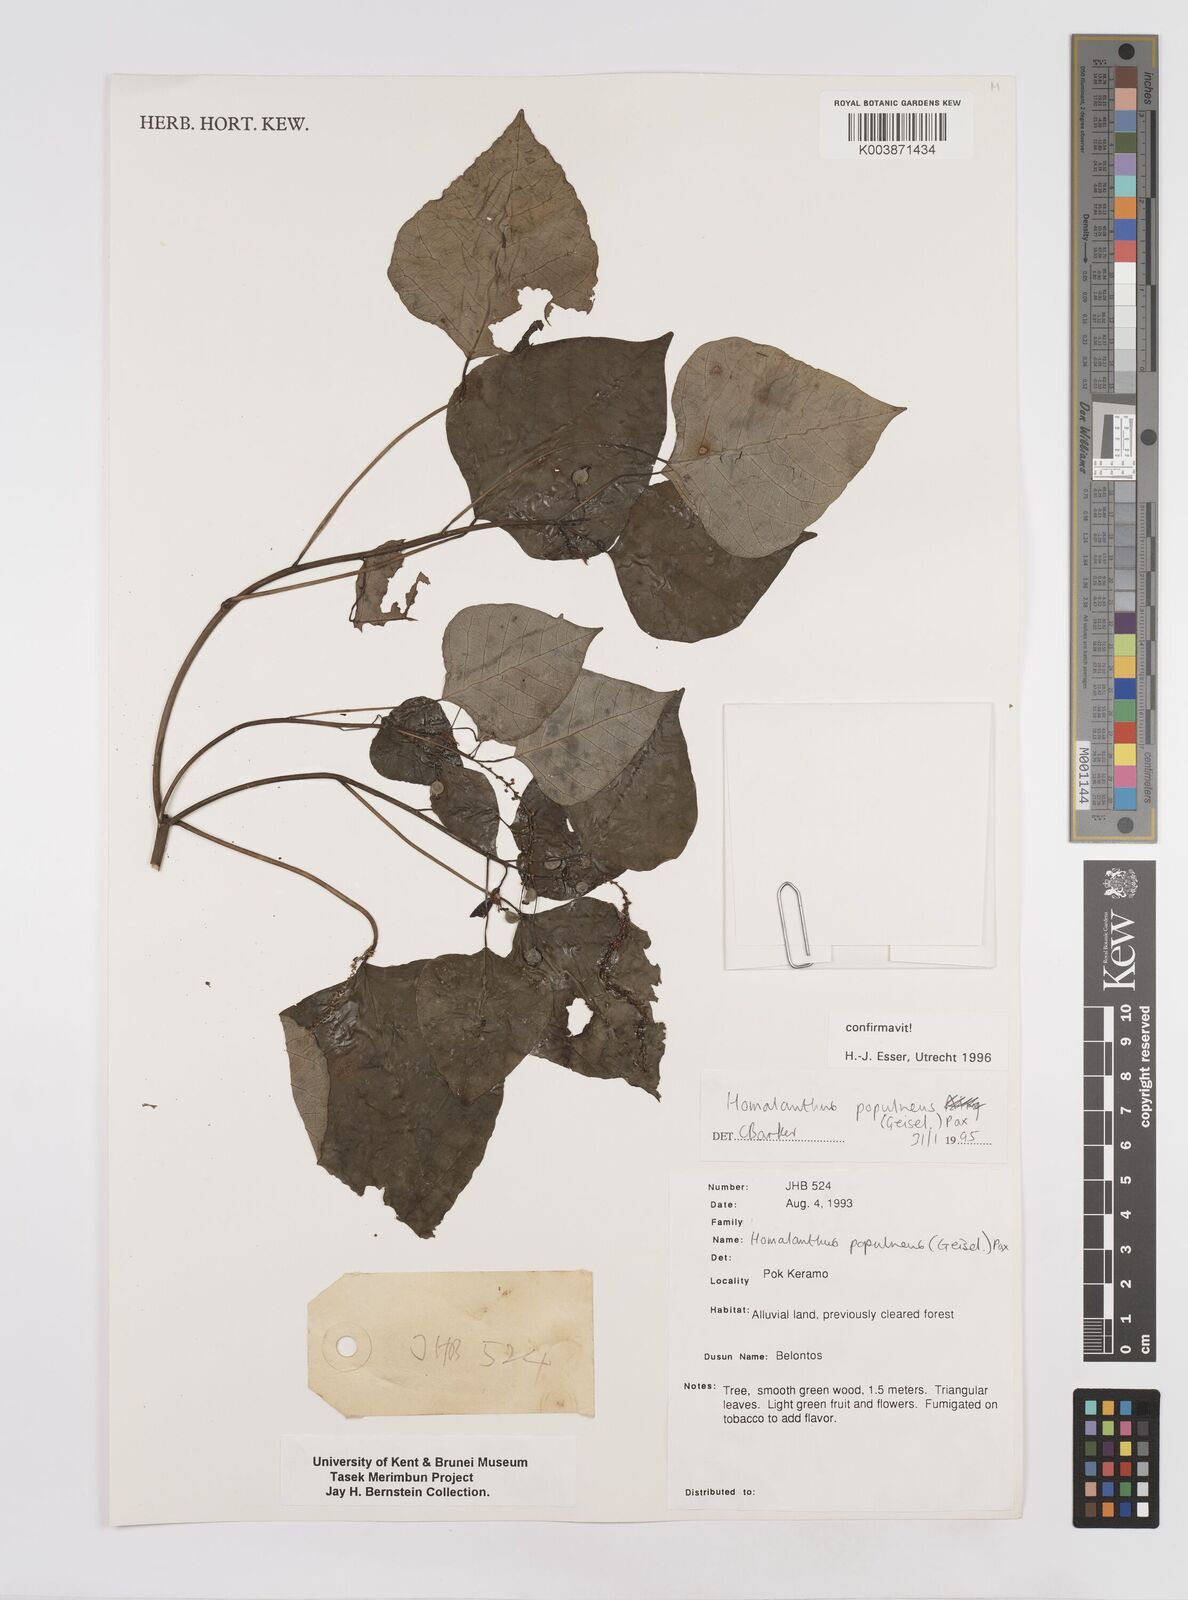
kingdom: Plantae
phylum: Tracheophyta
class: Magnoliopsida
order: Malpighiales
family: Euphorbiaceae
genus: Homalanthus
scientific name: Homalanthus populneus
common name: Spurge
